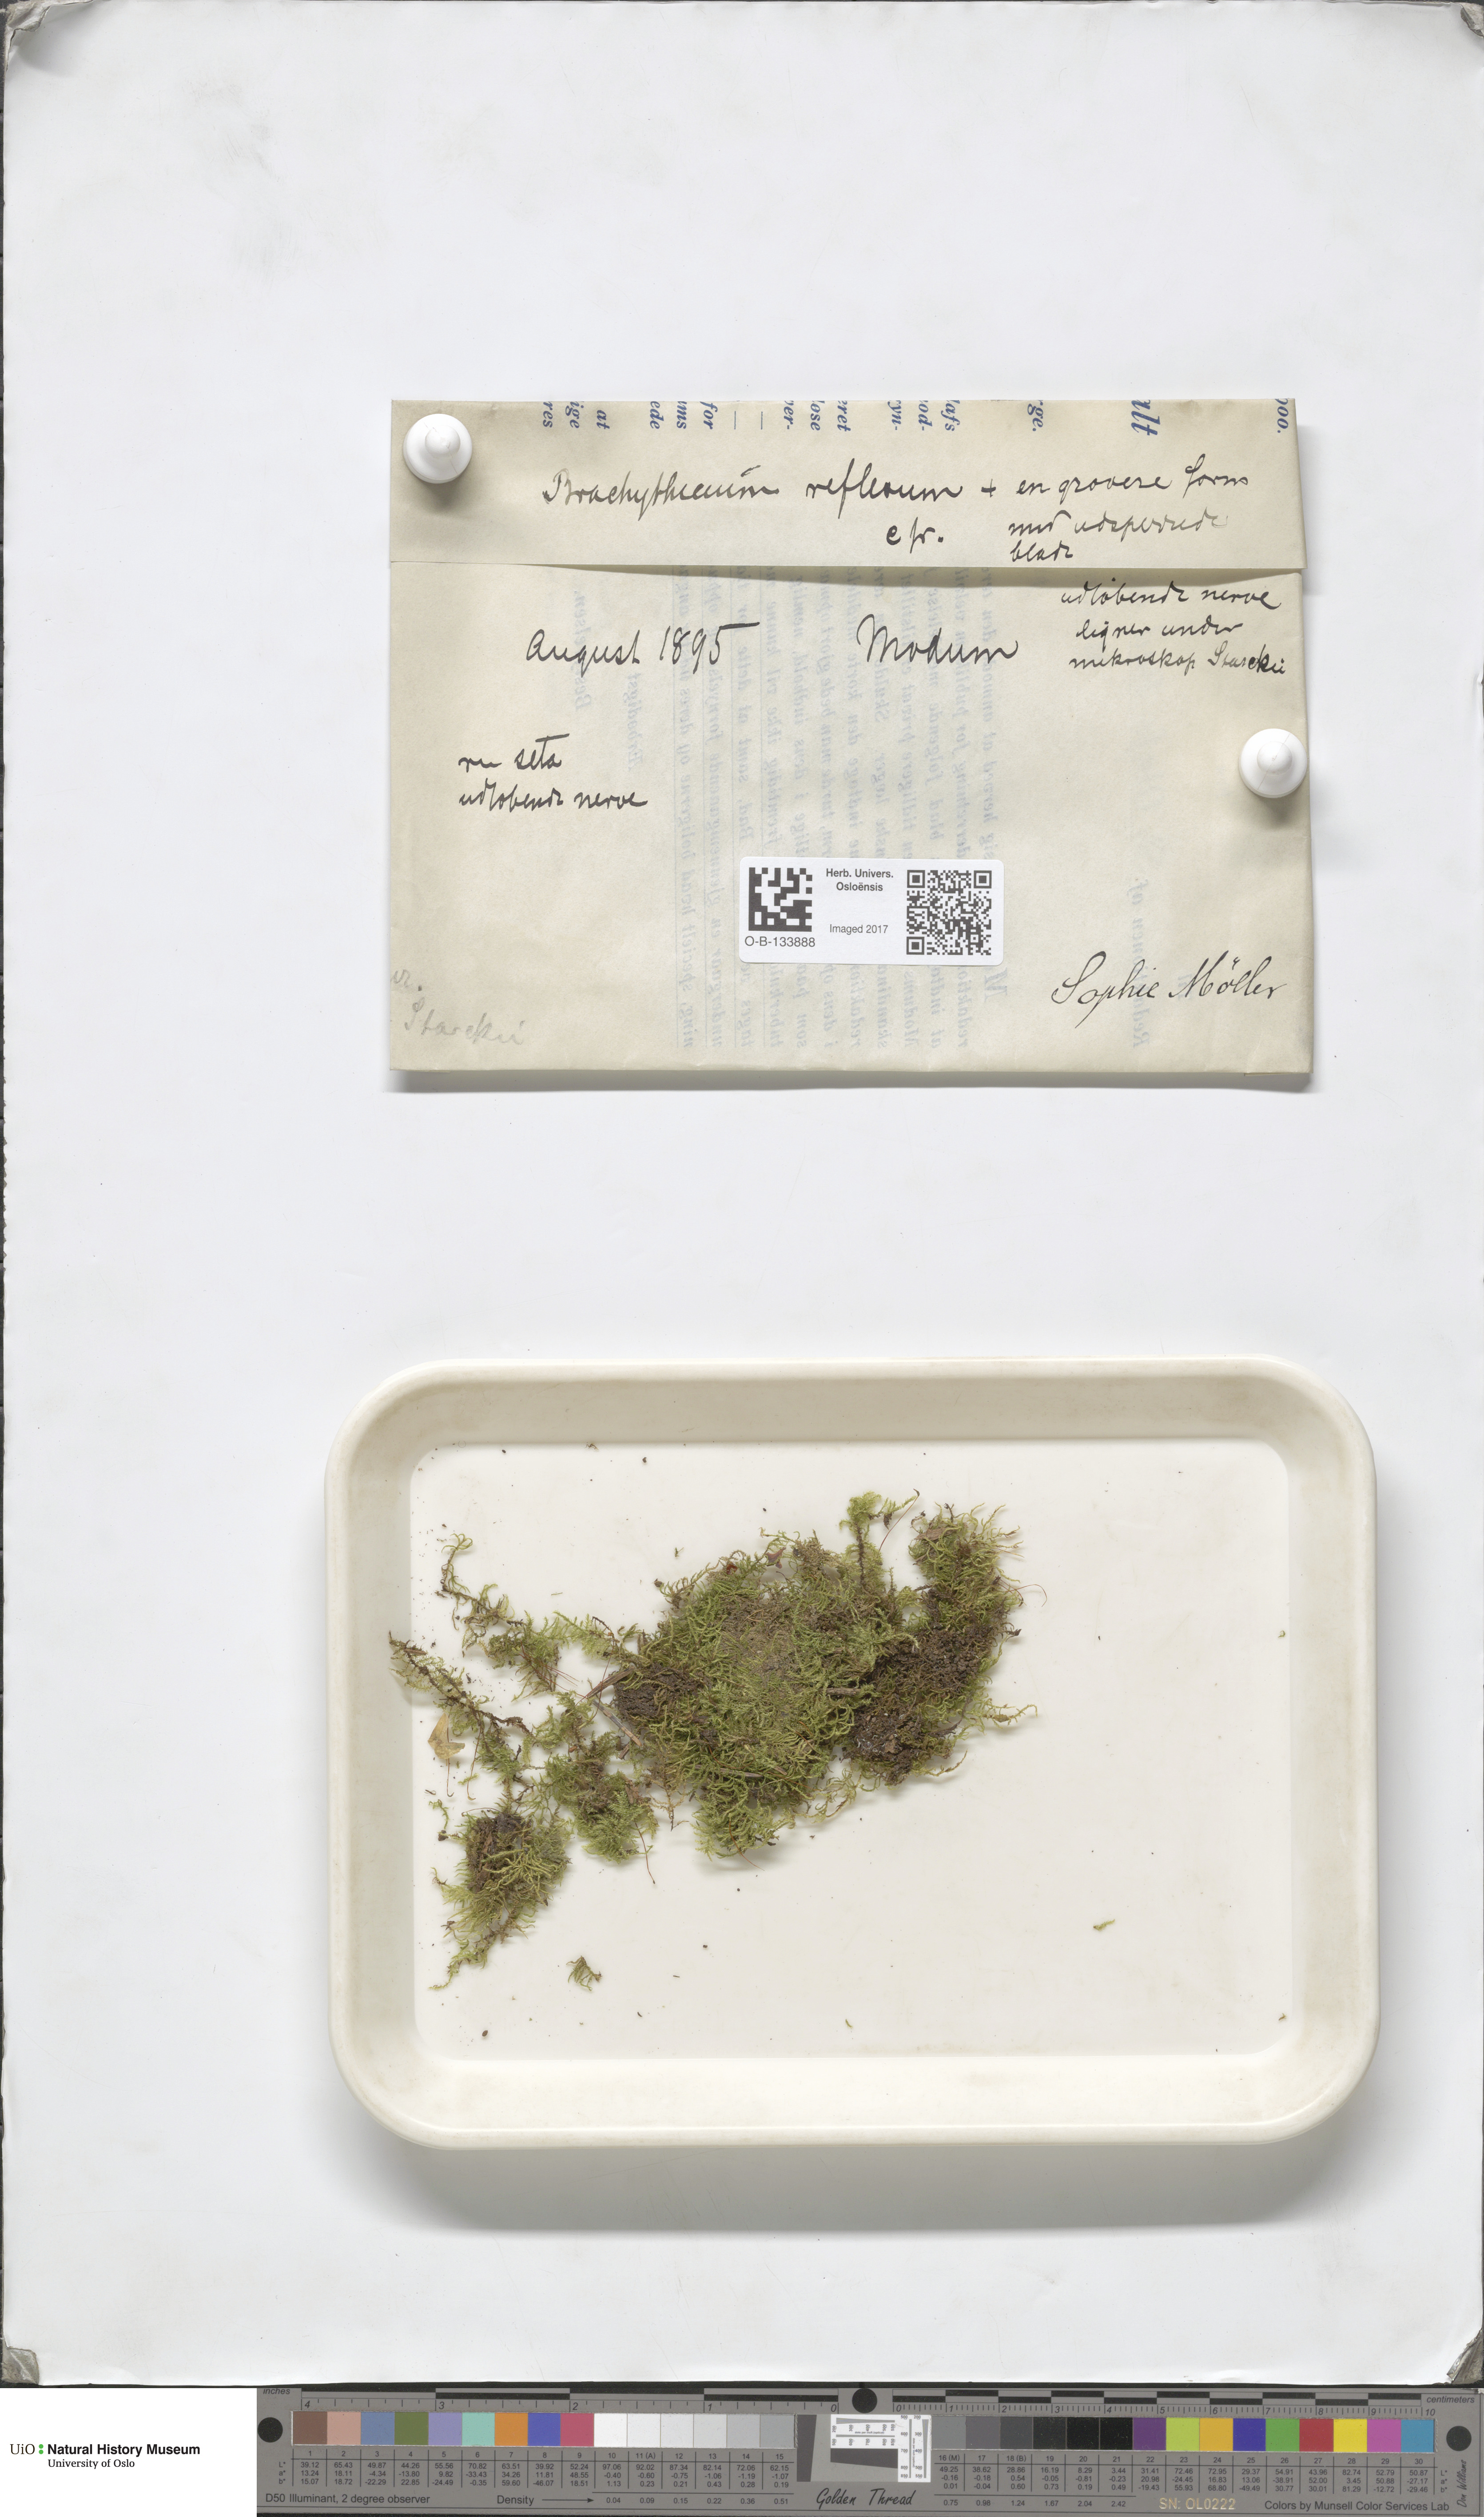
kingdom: Plantae
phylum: Bryophyta
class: Bryopsida
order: Hypnales
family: Brachytheciaceae
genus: Sciuro-hypnum
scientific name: Sciuro-hypnum reflexum
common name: Reflexed feather-moss
